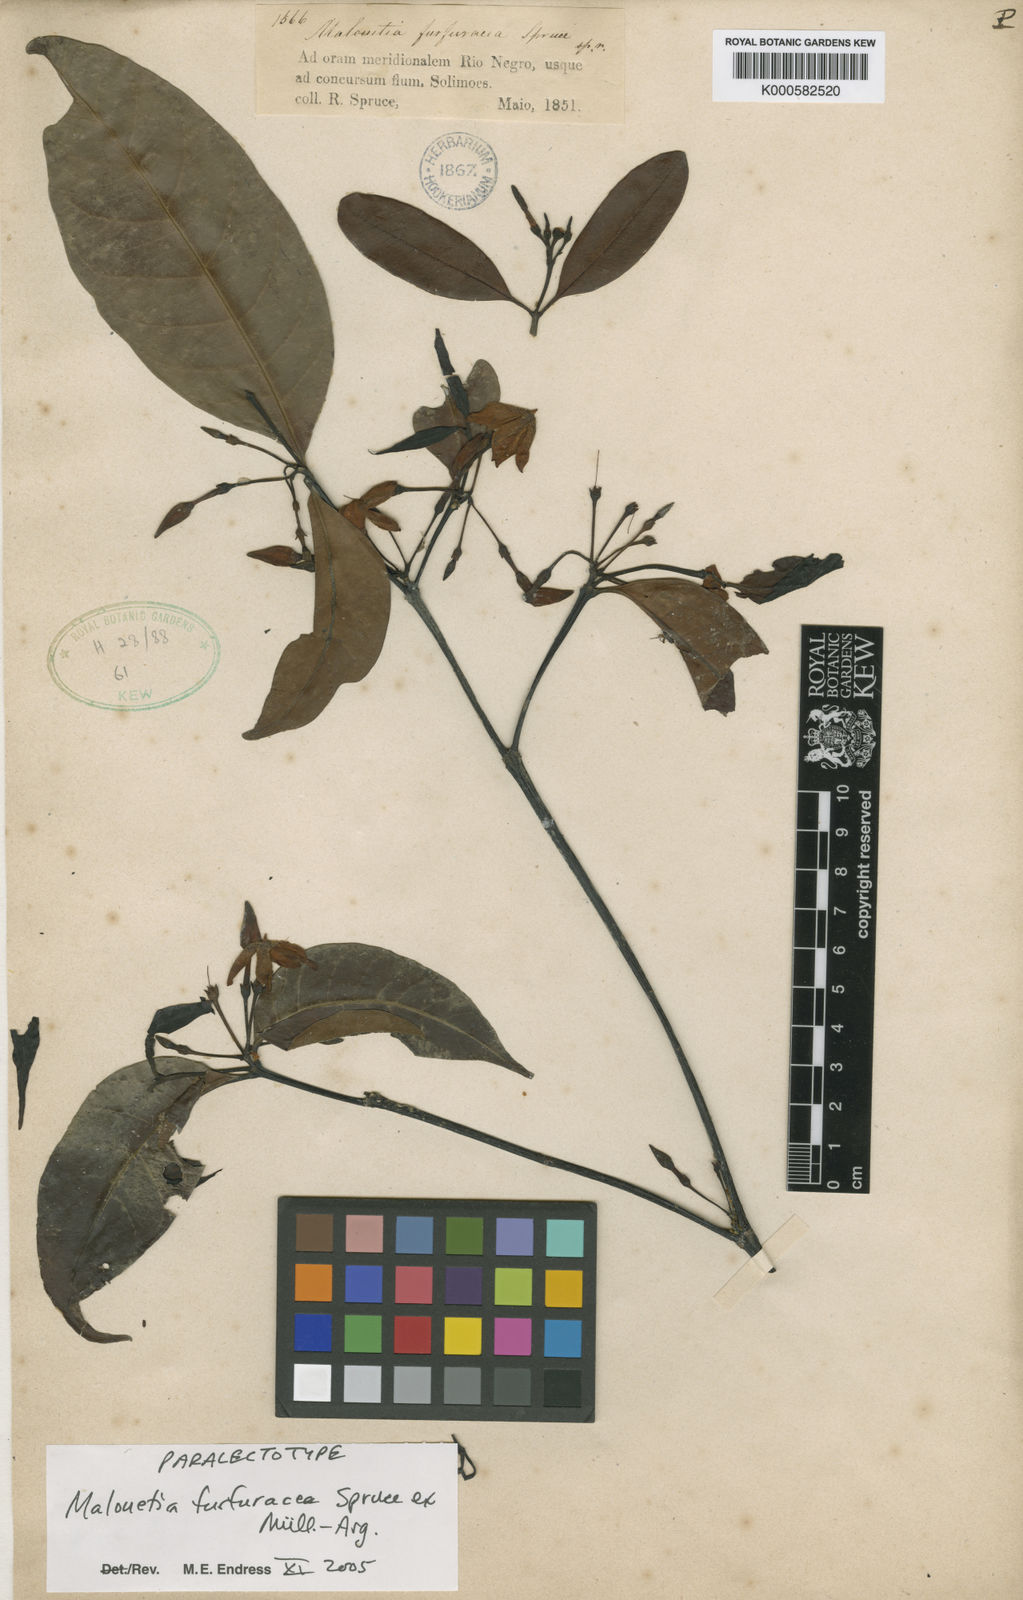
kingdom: Plantae
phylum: Tracheophyta
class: Magnoliopsida
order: Gentianales
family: Apocynaceae
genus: Malouetia
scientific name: Malouetia
